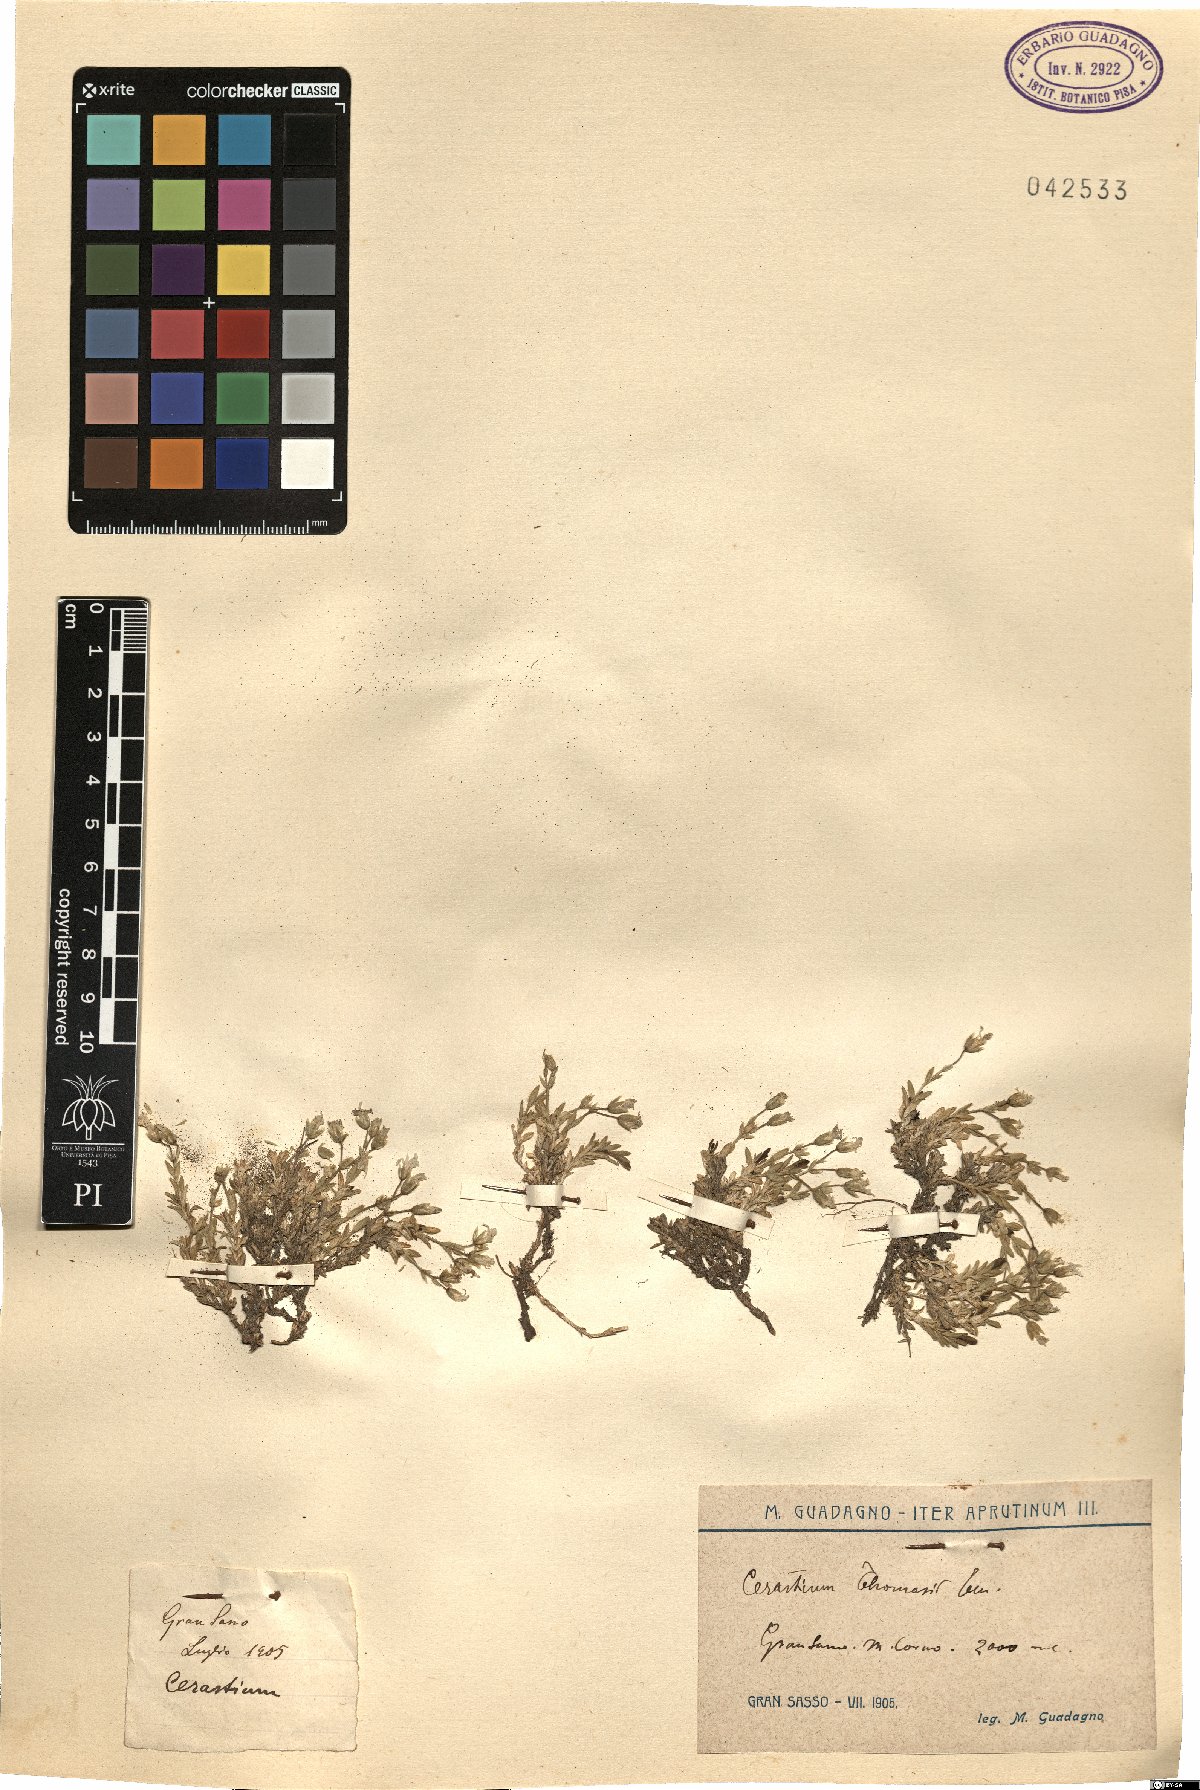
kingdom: Plantae
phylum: Tracheophyta
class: Magnoliopsida
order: Caryophyllales
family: Caryophyllaceae
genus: Cerastium
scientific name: Cerastium thomasii
